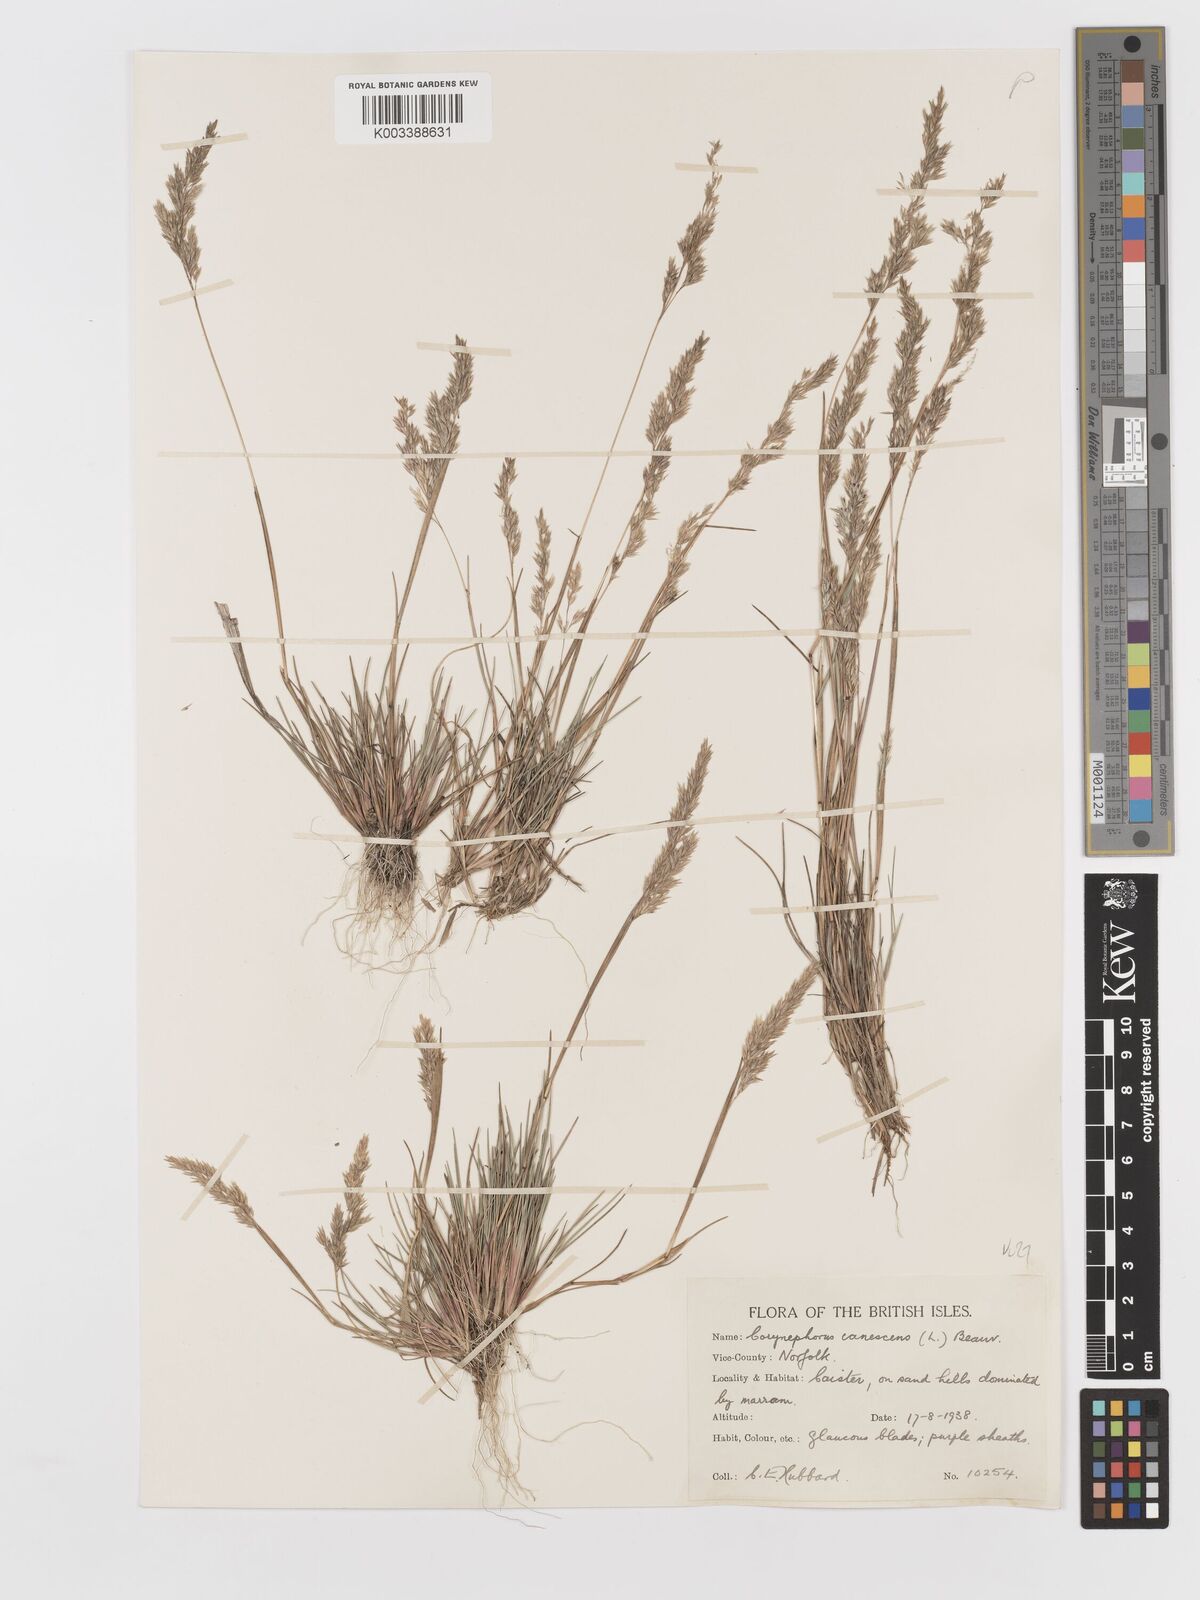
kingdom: Plantae
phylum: Tracheophyta
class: Liliopsida
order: Poales
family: Poaceae
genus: Corynephorus
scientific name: Corynephorus canescens
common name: Grey hair-grass
